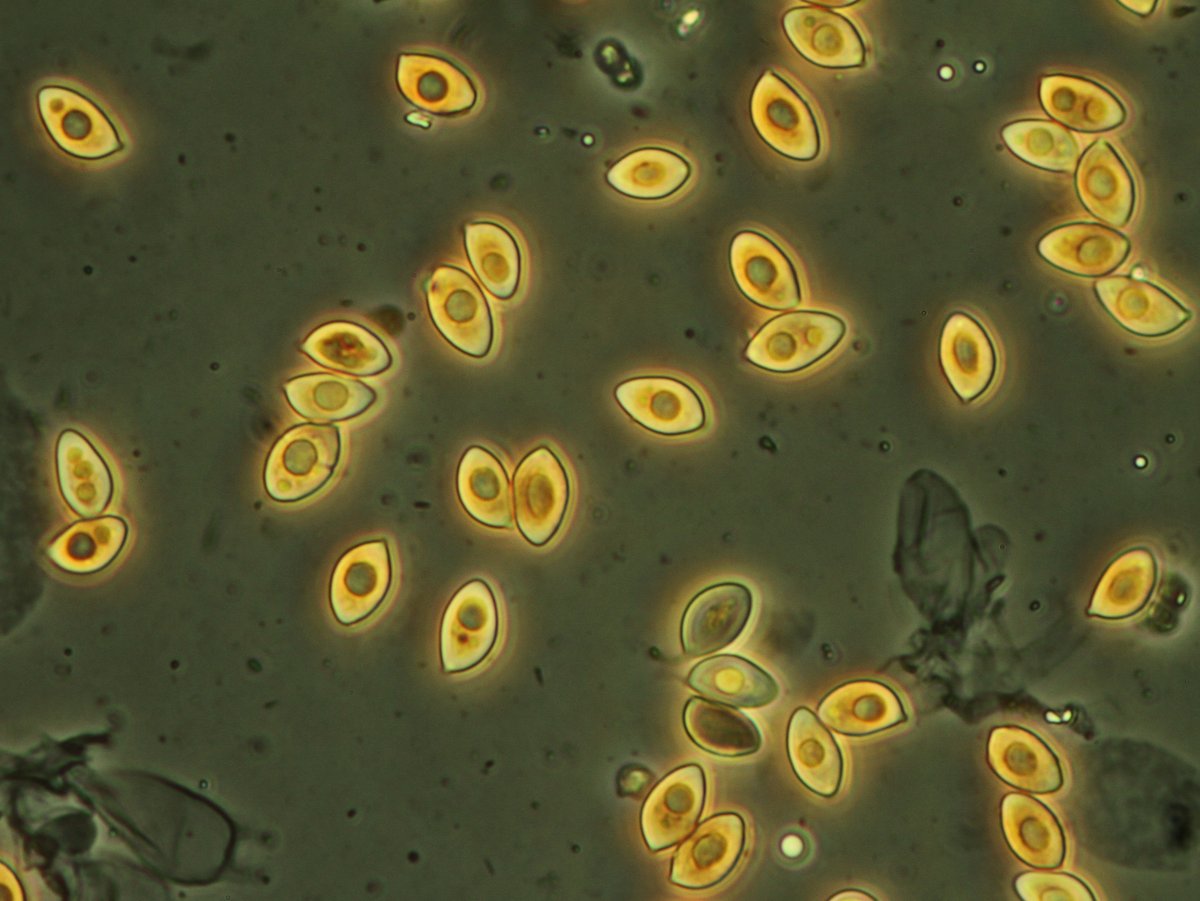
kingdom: Fungi
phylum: Basidiomycota
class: Agaricomycetes
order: Agaricales
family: Hymenogastraceae
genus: Galerina
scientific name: Galerina hypnorum
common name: mos-hjelmhat
